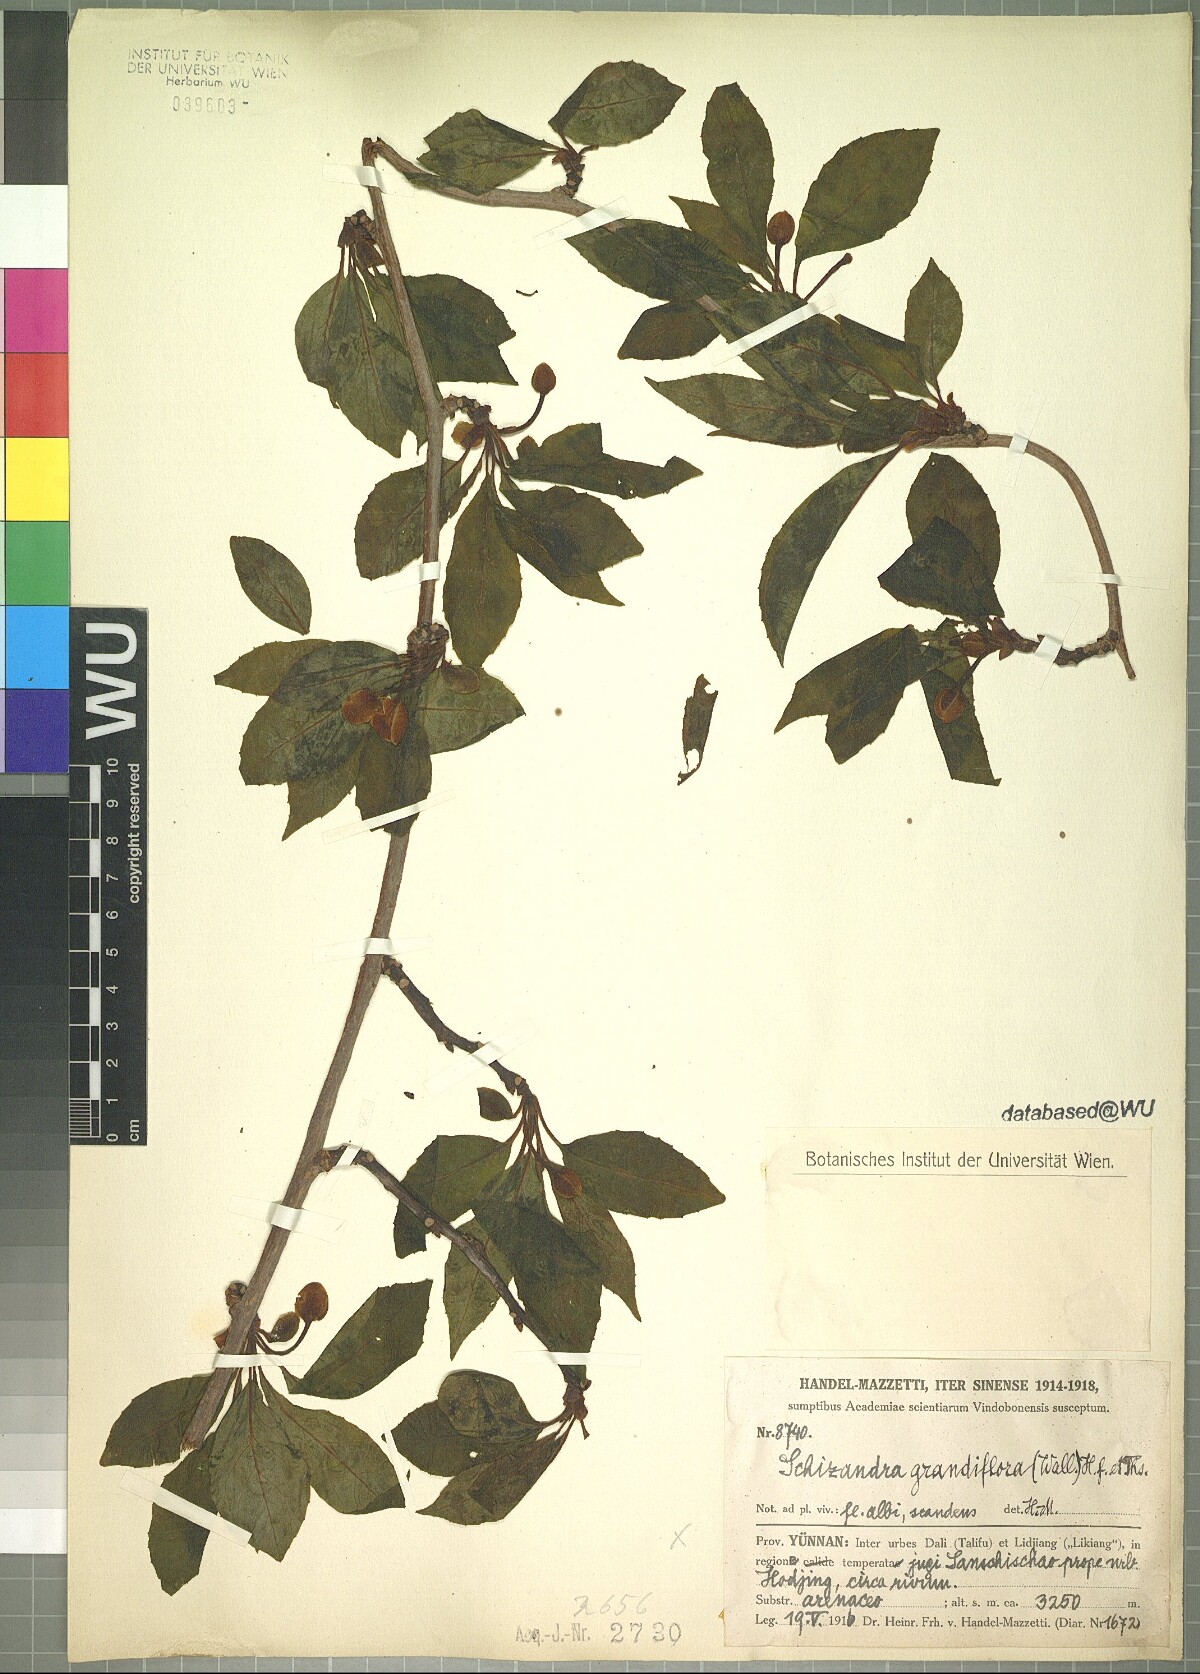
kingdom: Plantae
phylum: Tracheophyta
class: Magnoliopsida
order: Austrobaileyales
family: Schisandraceae
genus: Schisandra
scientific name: Schisandra grandiflora
